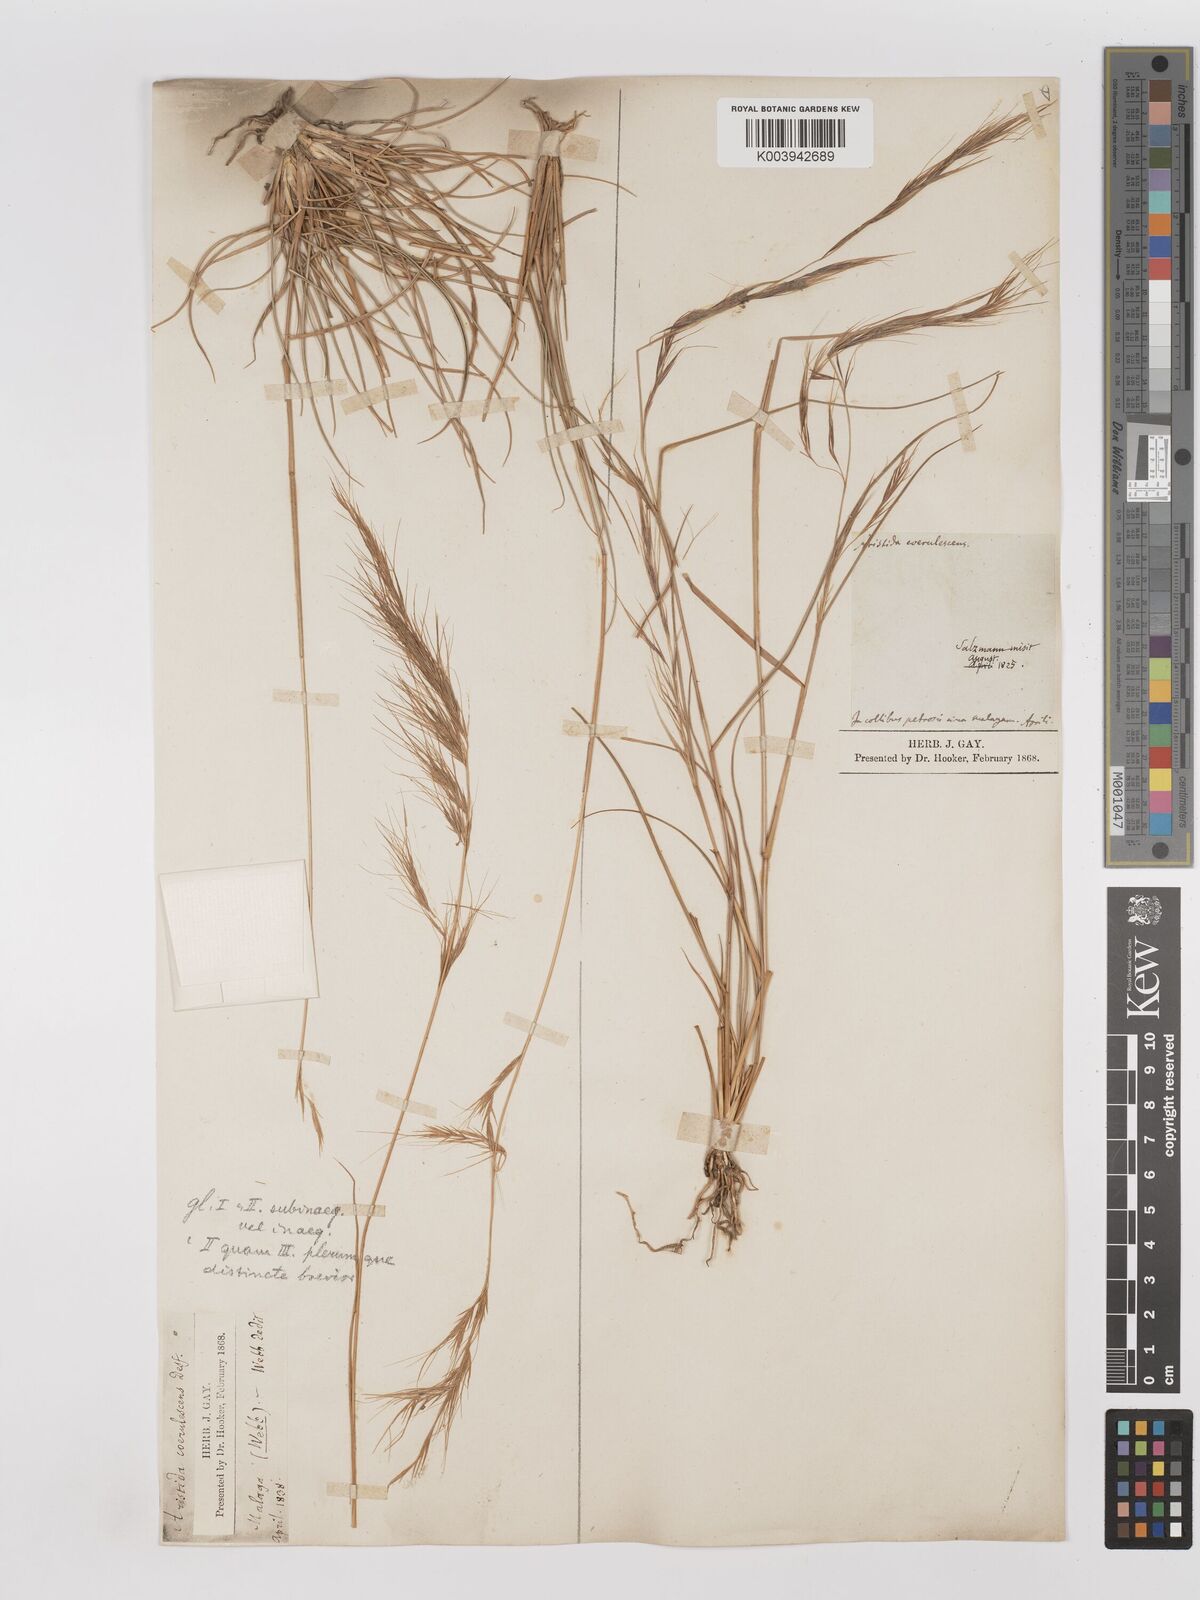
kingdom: Plantae
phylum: Tracheophyta
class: Liliopsida
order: Poales
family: Poaceae
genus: Aristida
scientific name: Aristida adscensionis
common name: Sixweeks threeawn
